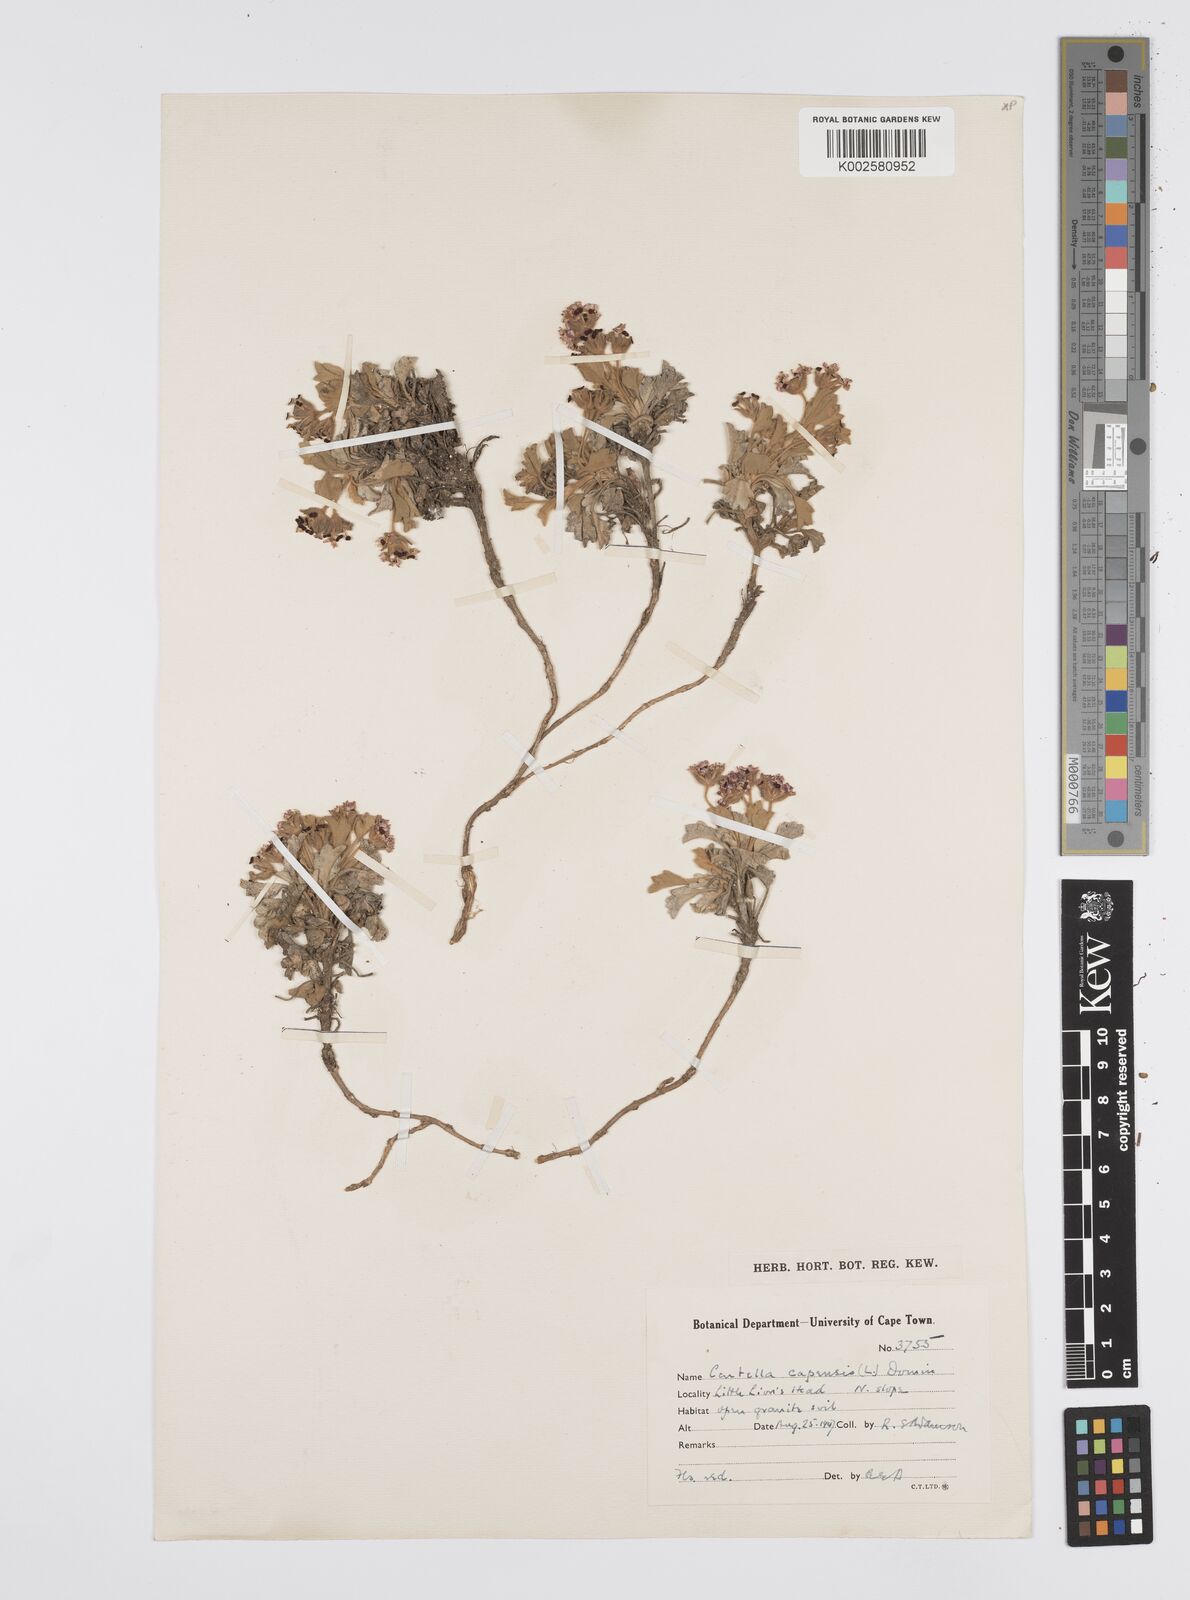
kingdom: Plantae
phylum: Tracheophyta
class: Magnoliopsida
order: Apiales
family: Apiaceae
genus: Centella
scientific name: Centella capensis
